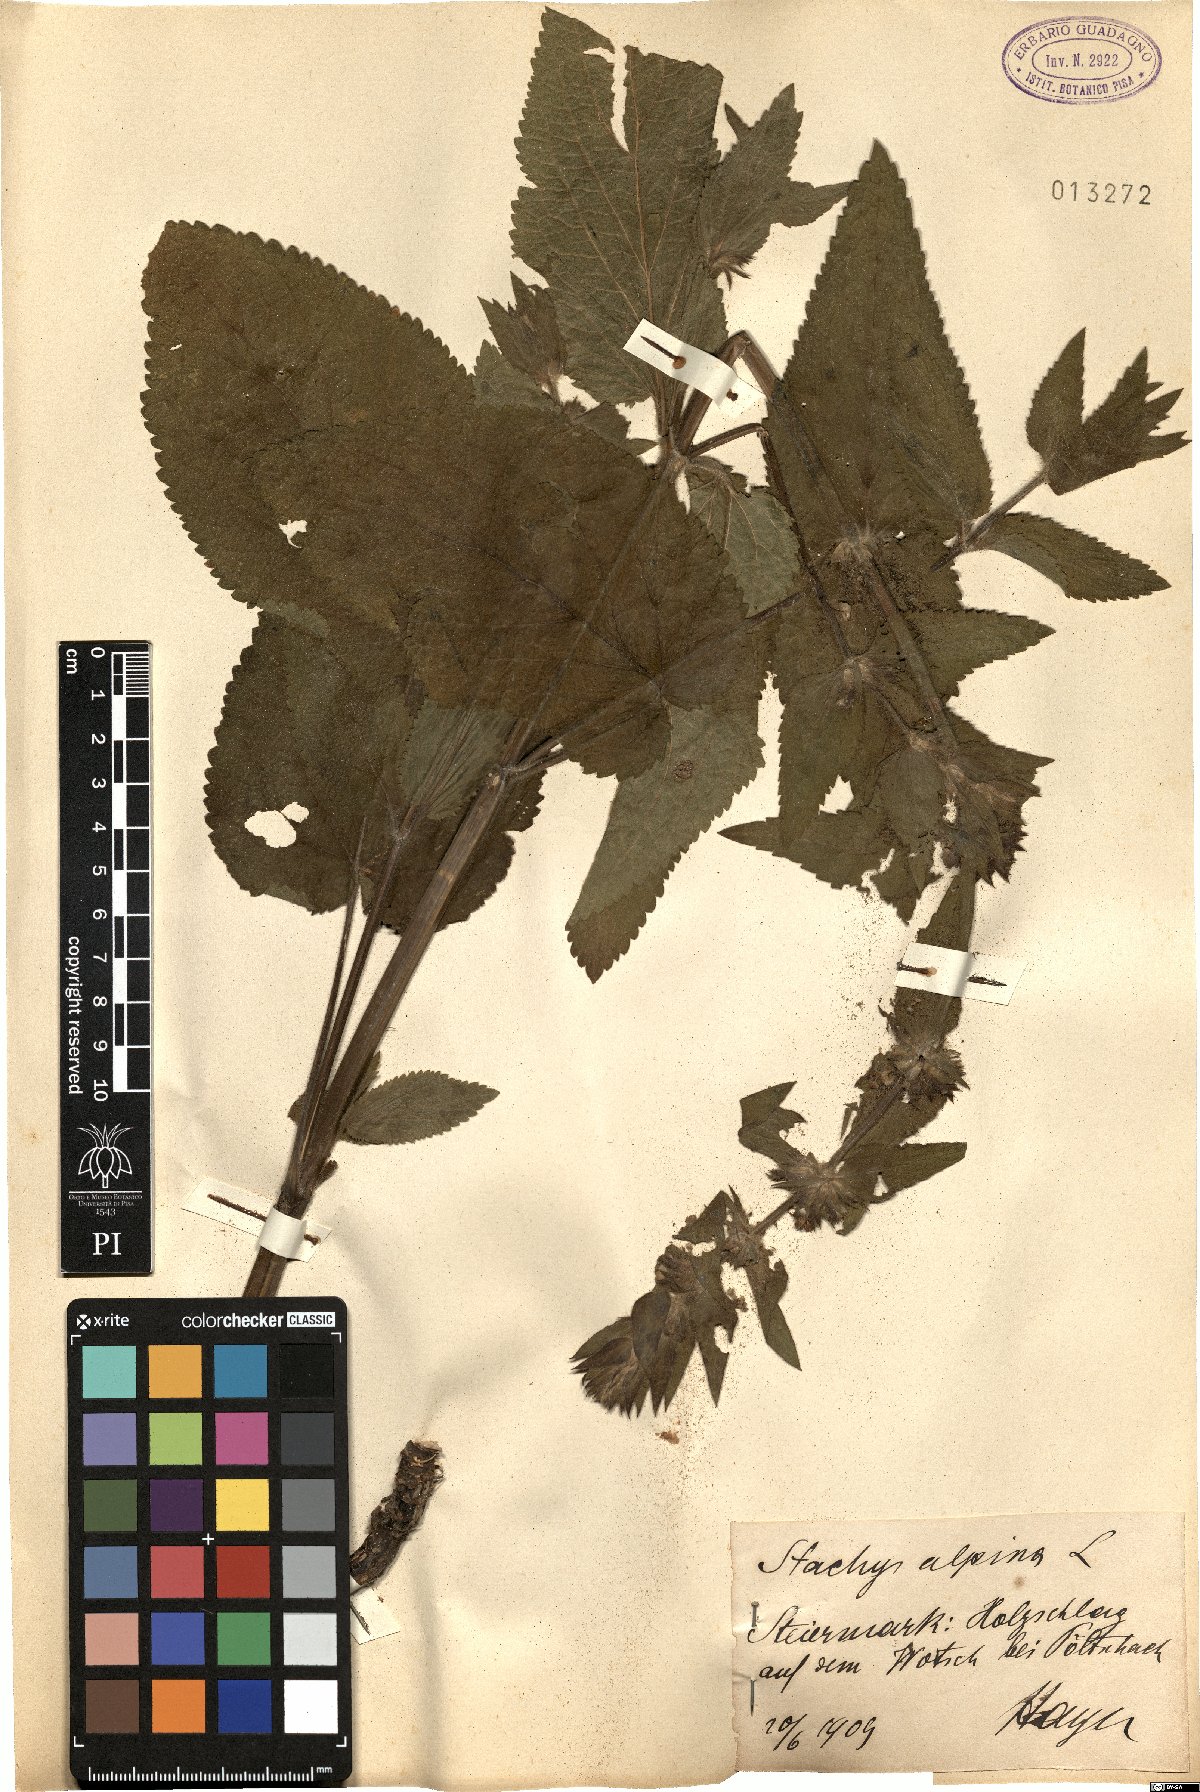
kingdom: Plantae
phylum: Tracheophyta
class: Magnoliopsida
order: Lamiales
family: Lamiaceae
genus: Stachys
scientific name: Stachys alpina
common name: Limestone woundwort
